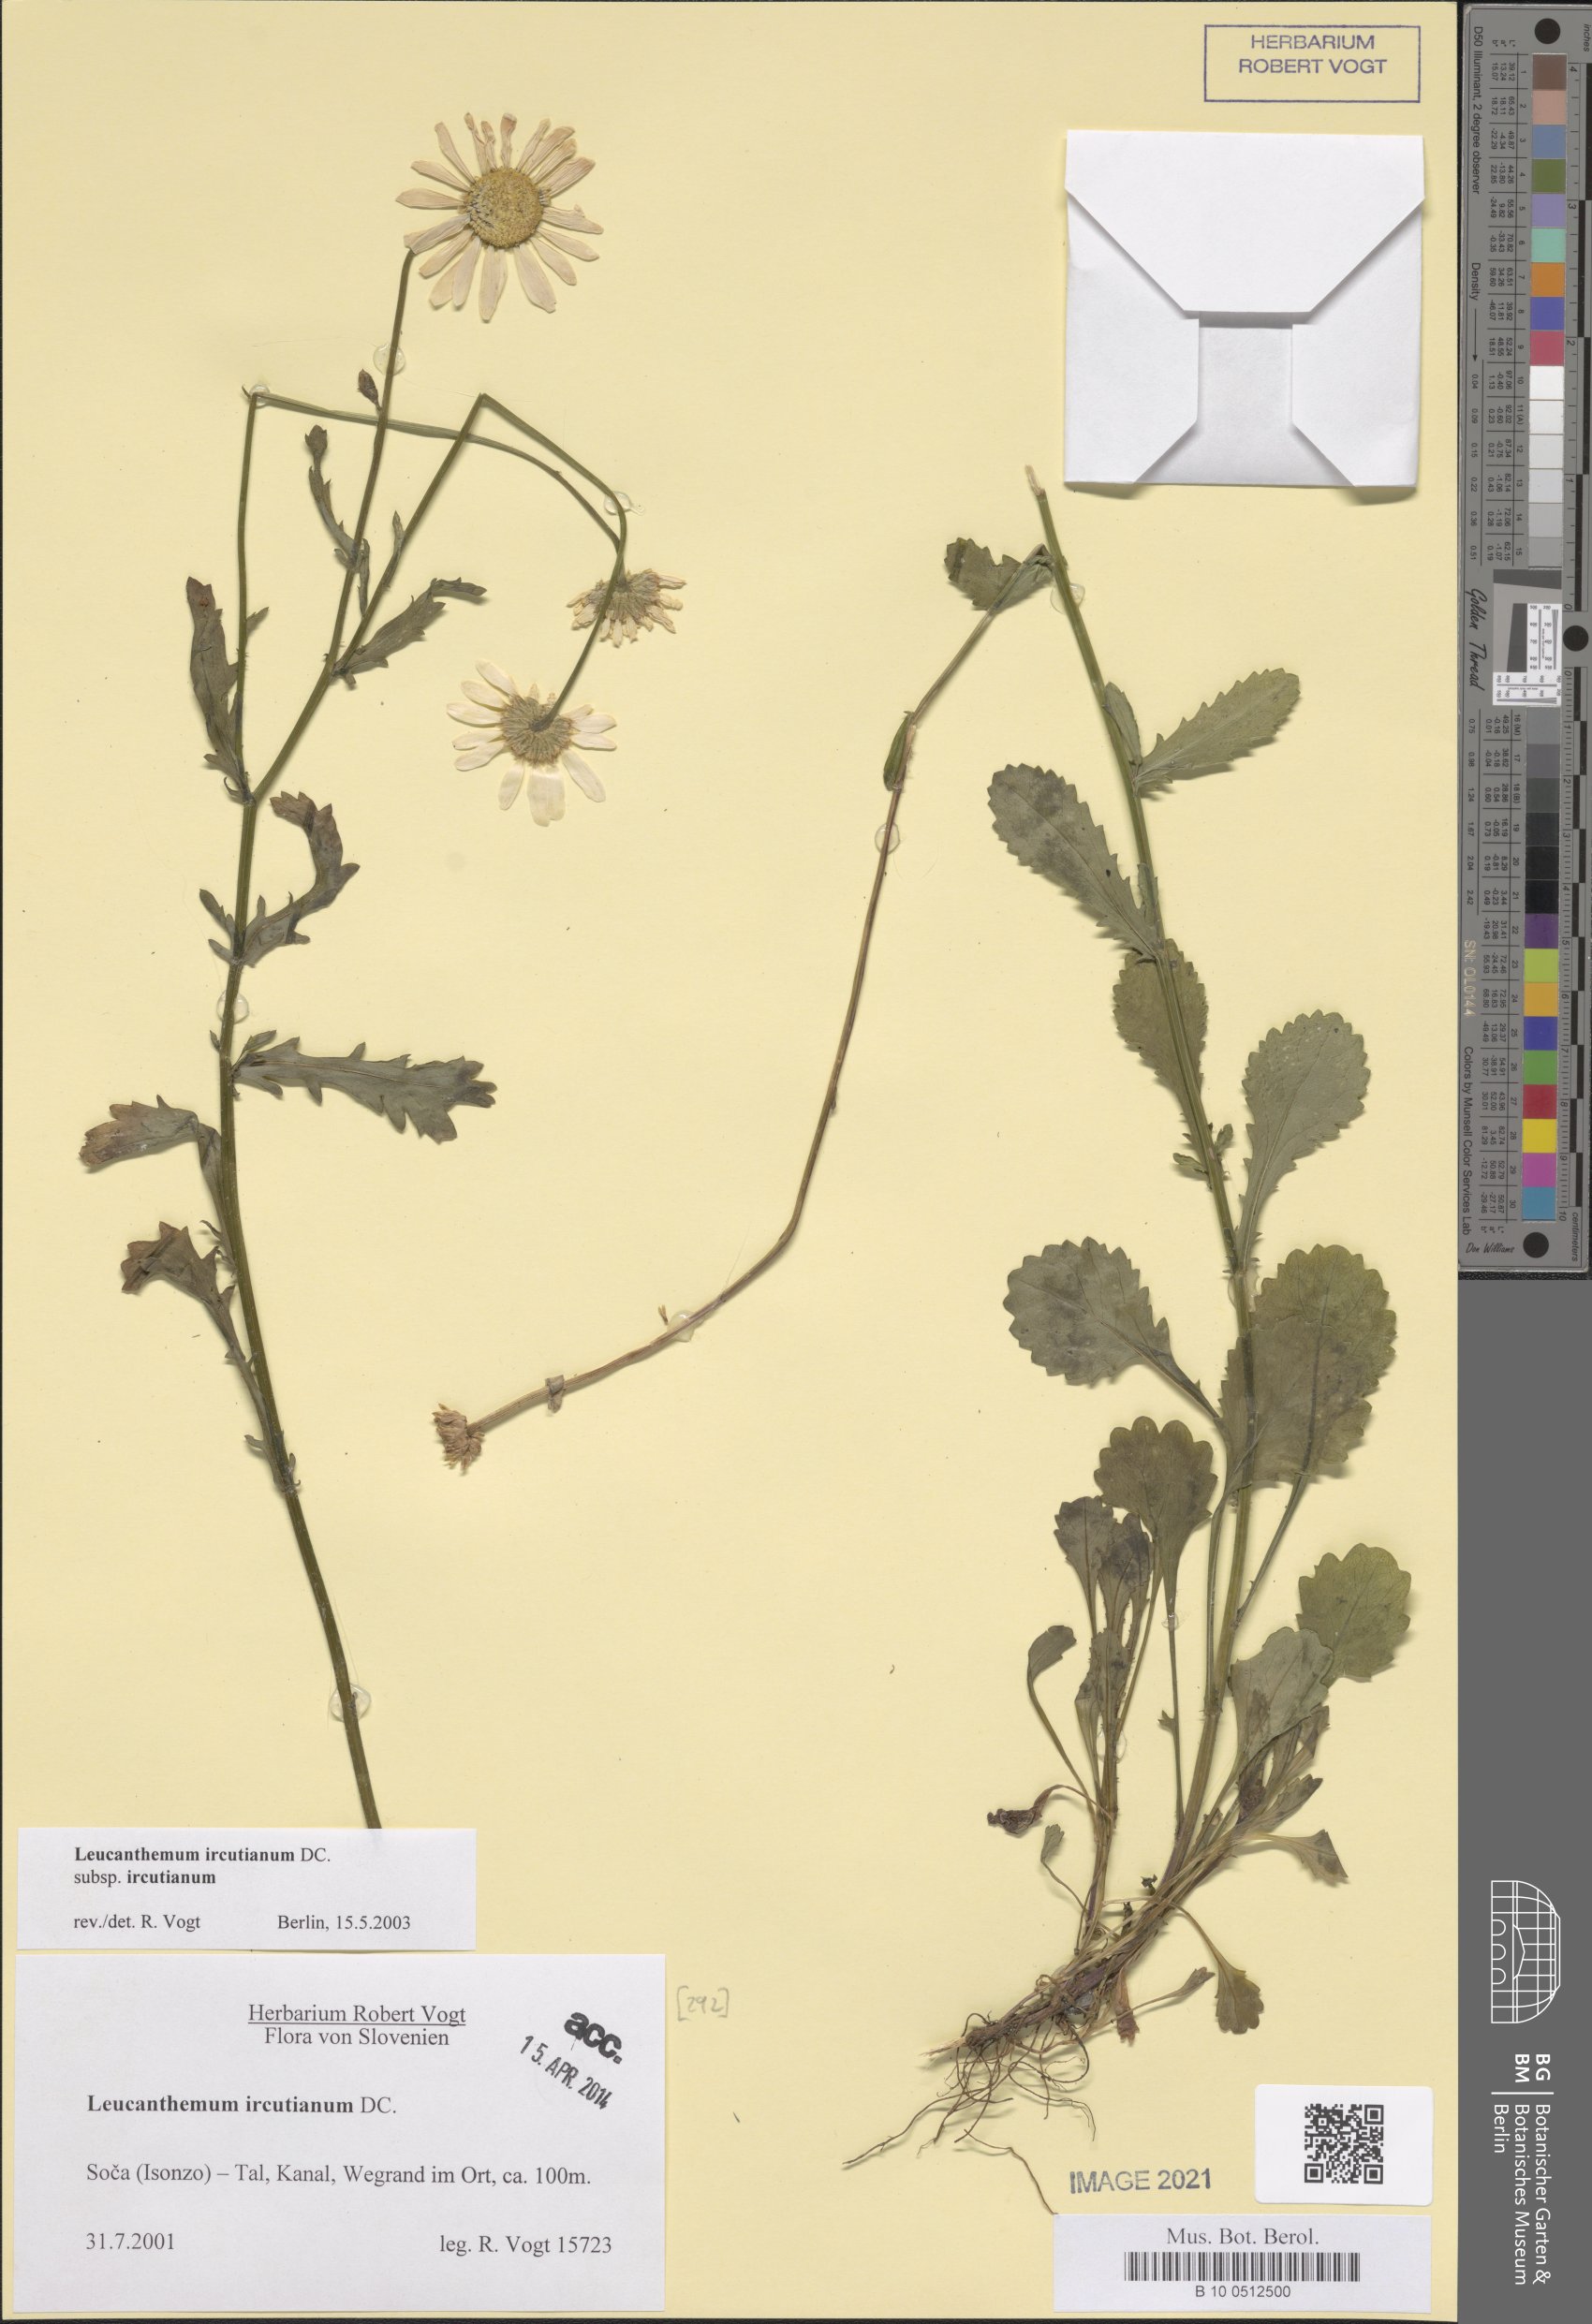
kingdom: Plantae
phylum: Tracheophyta
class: Magnoliopsida
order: Asterales
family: Asteraceae
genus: Leucanthemum
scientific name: Leucanthemum ircutianum
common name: Daisy
